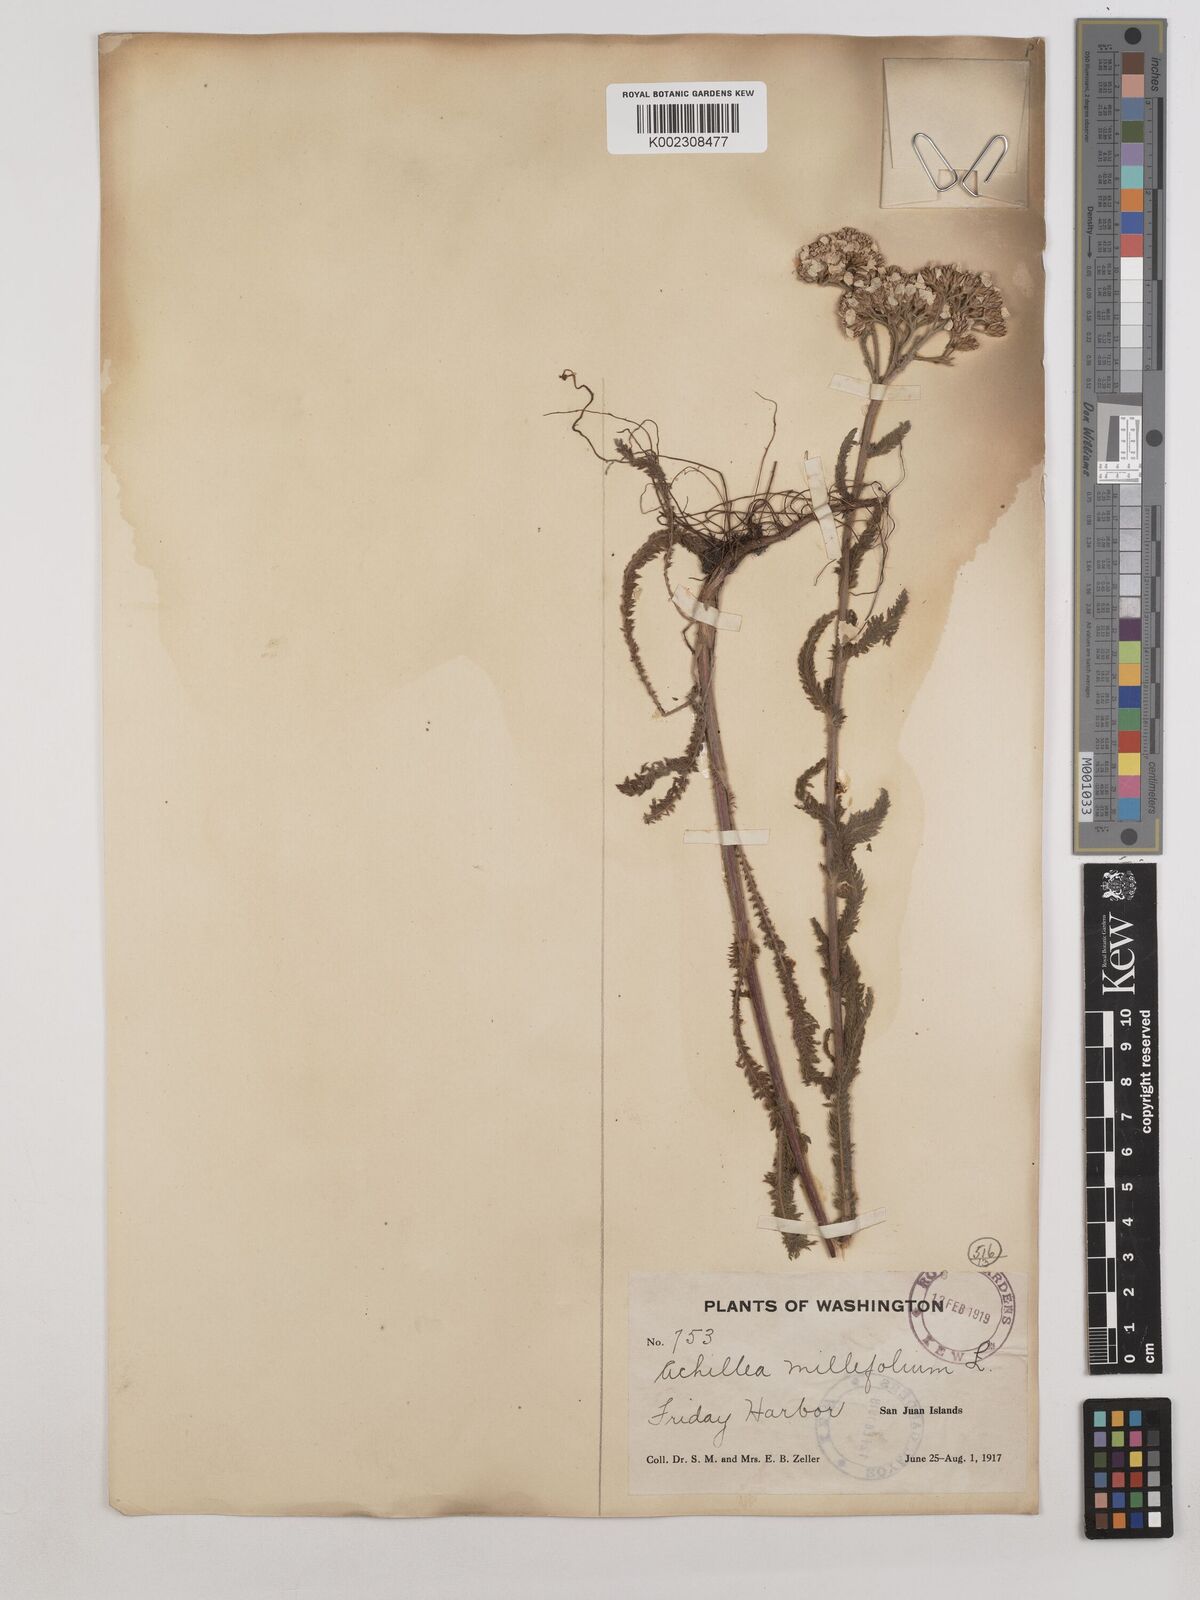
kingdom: Plantae
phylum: Tracheophyta
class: Magnoliopsida
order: Asterales
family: Asteraceae
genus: Achillea
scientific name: Achillea millefolium
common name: Yarrow
